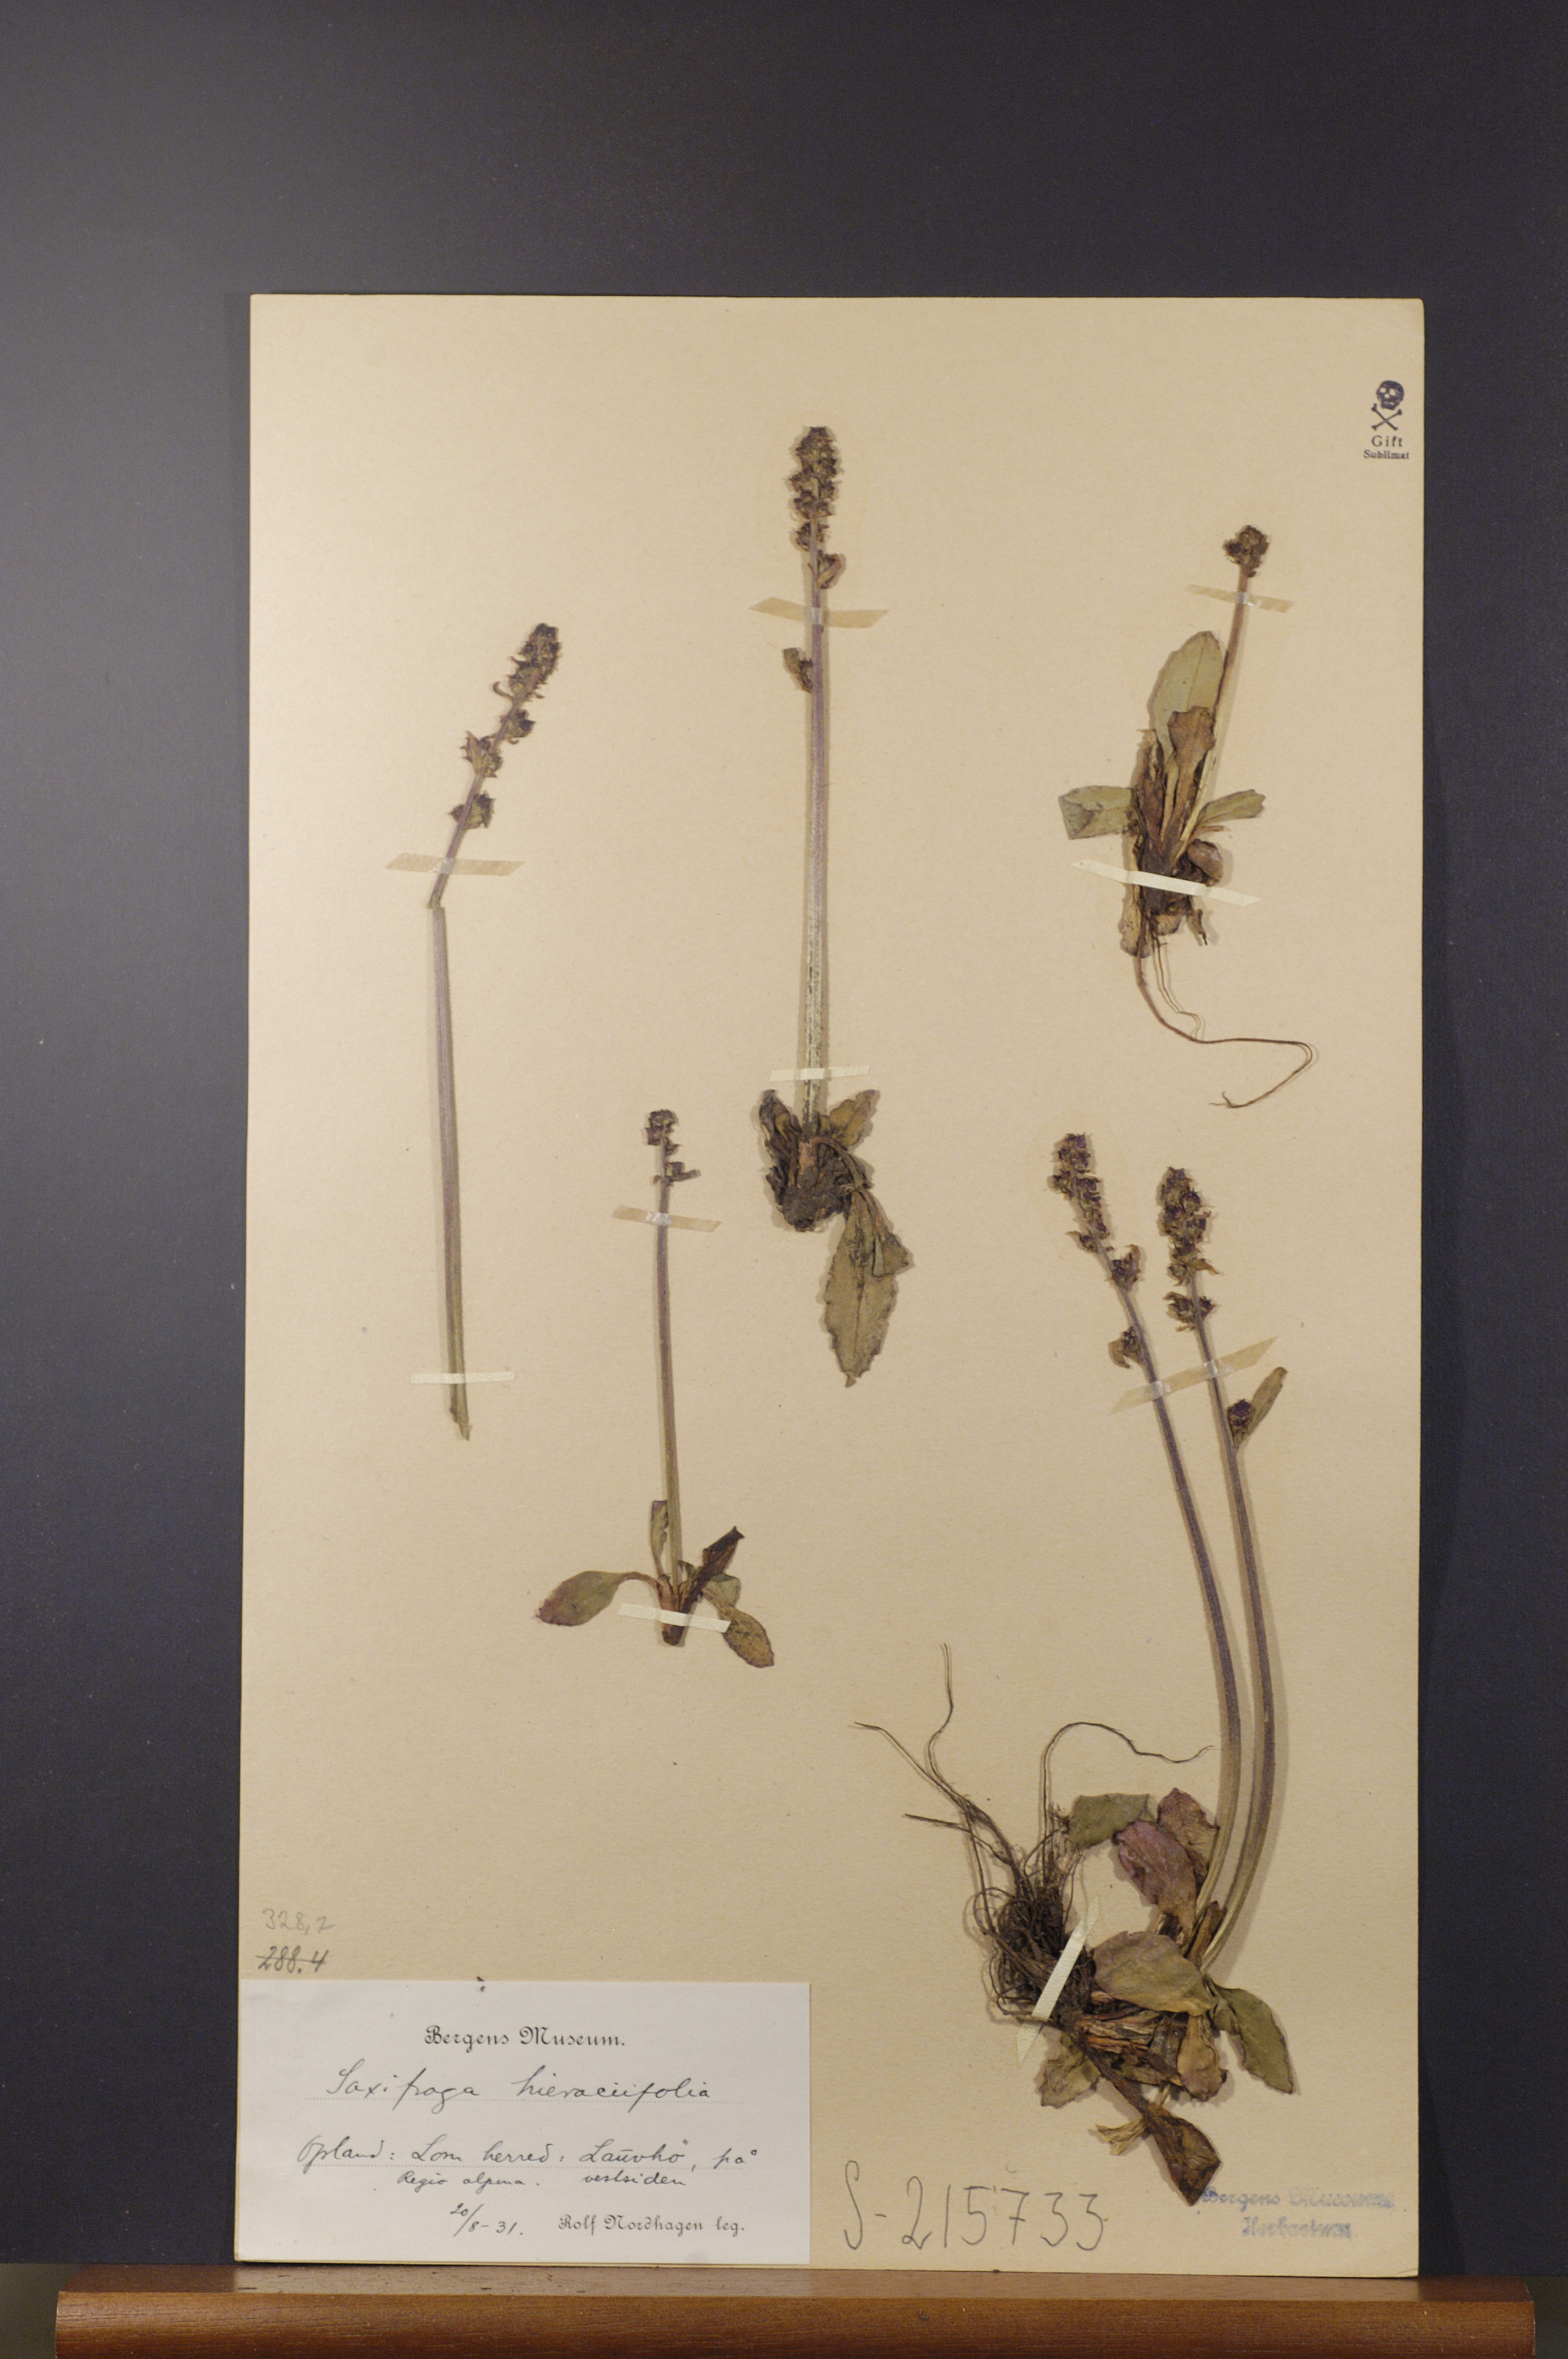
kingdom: Plantae
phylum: Tracheophyta
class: Magnoliopsida
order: Saxifragales
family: Saxifragaceae
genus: Micranthes
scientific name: Micranthes hieraciifolia
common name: Hawkweed-leaved saxifrage
